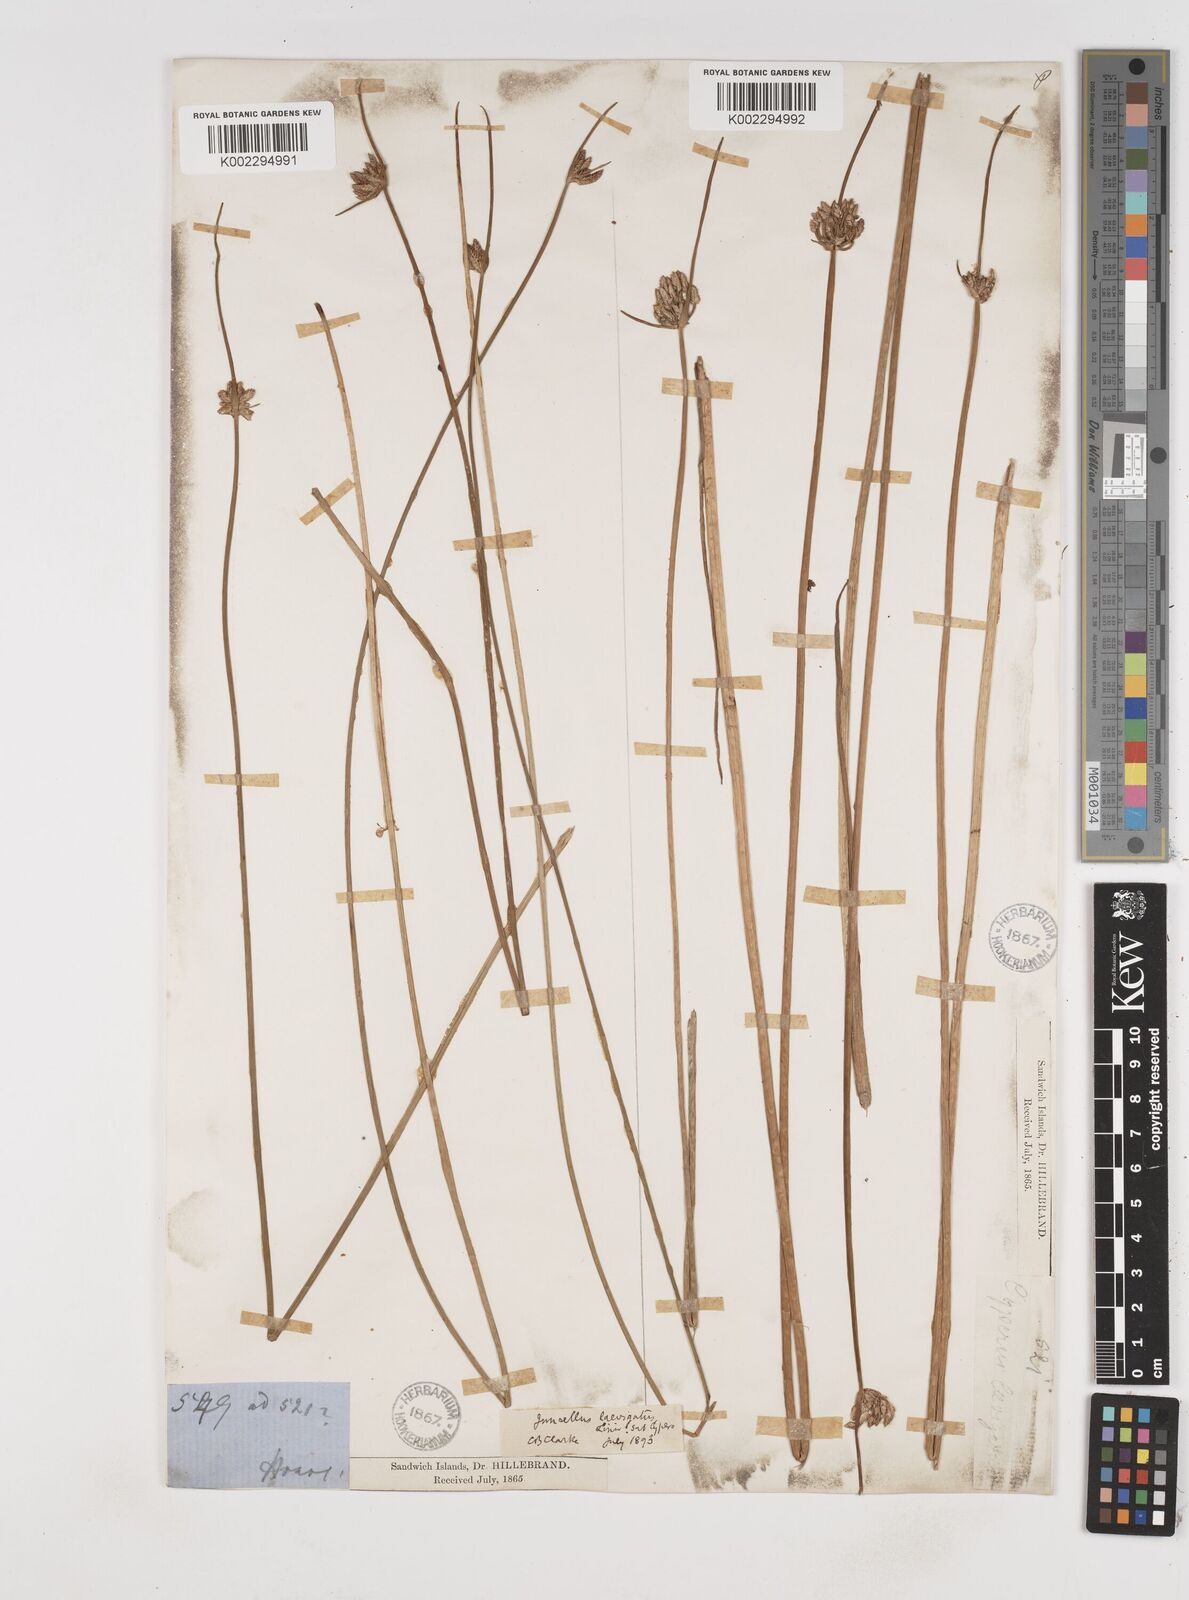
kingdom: Plantae
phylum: Tracheophyta
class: Liliopsida
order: Poales
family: Cyperaceae
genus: Cyperus
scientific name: Cyperus laevigatus
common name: Smooth flat sedge
